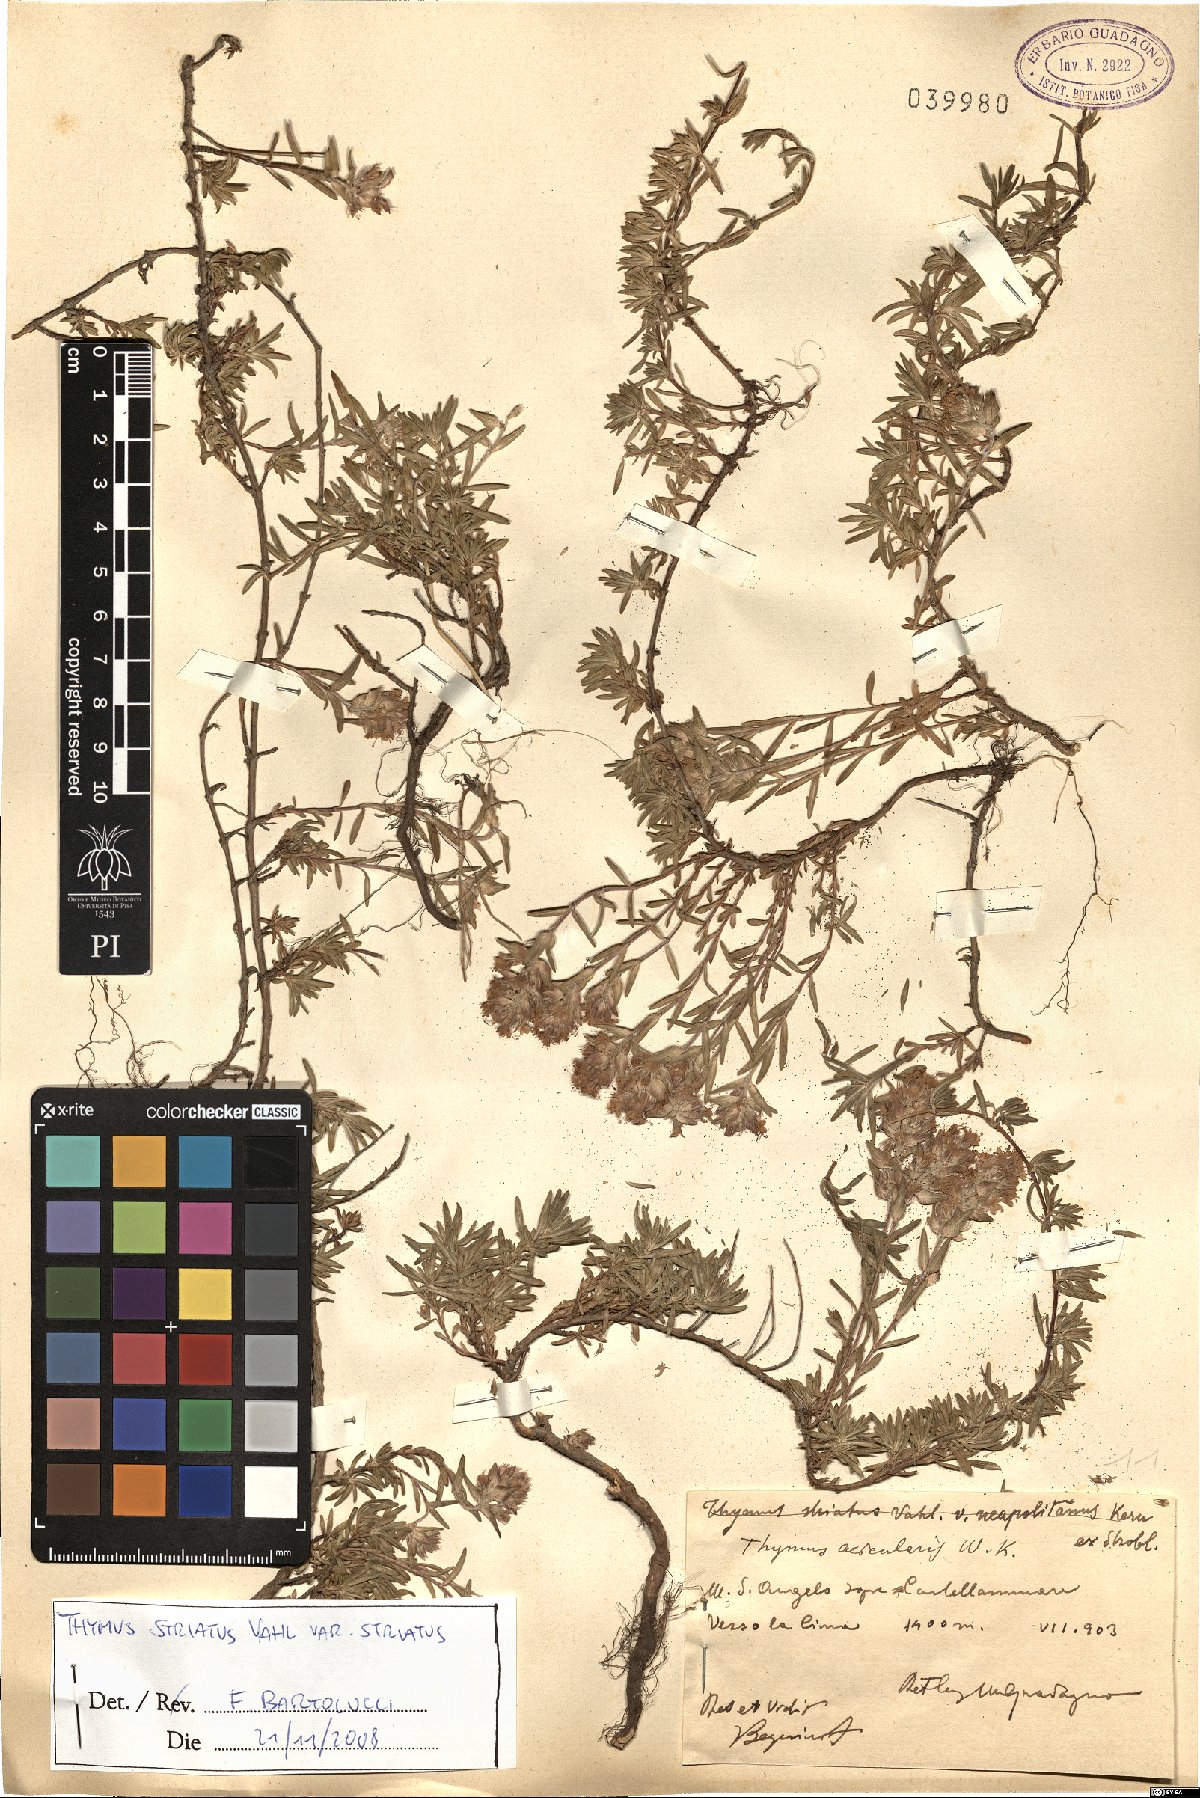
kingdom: Plantae
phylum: Tracheophyta
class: Magnoliopsida
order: Lamiales
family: Lamiaceae
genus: Thymus
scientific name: Thymus striatus
